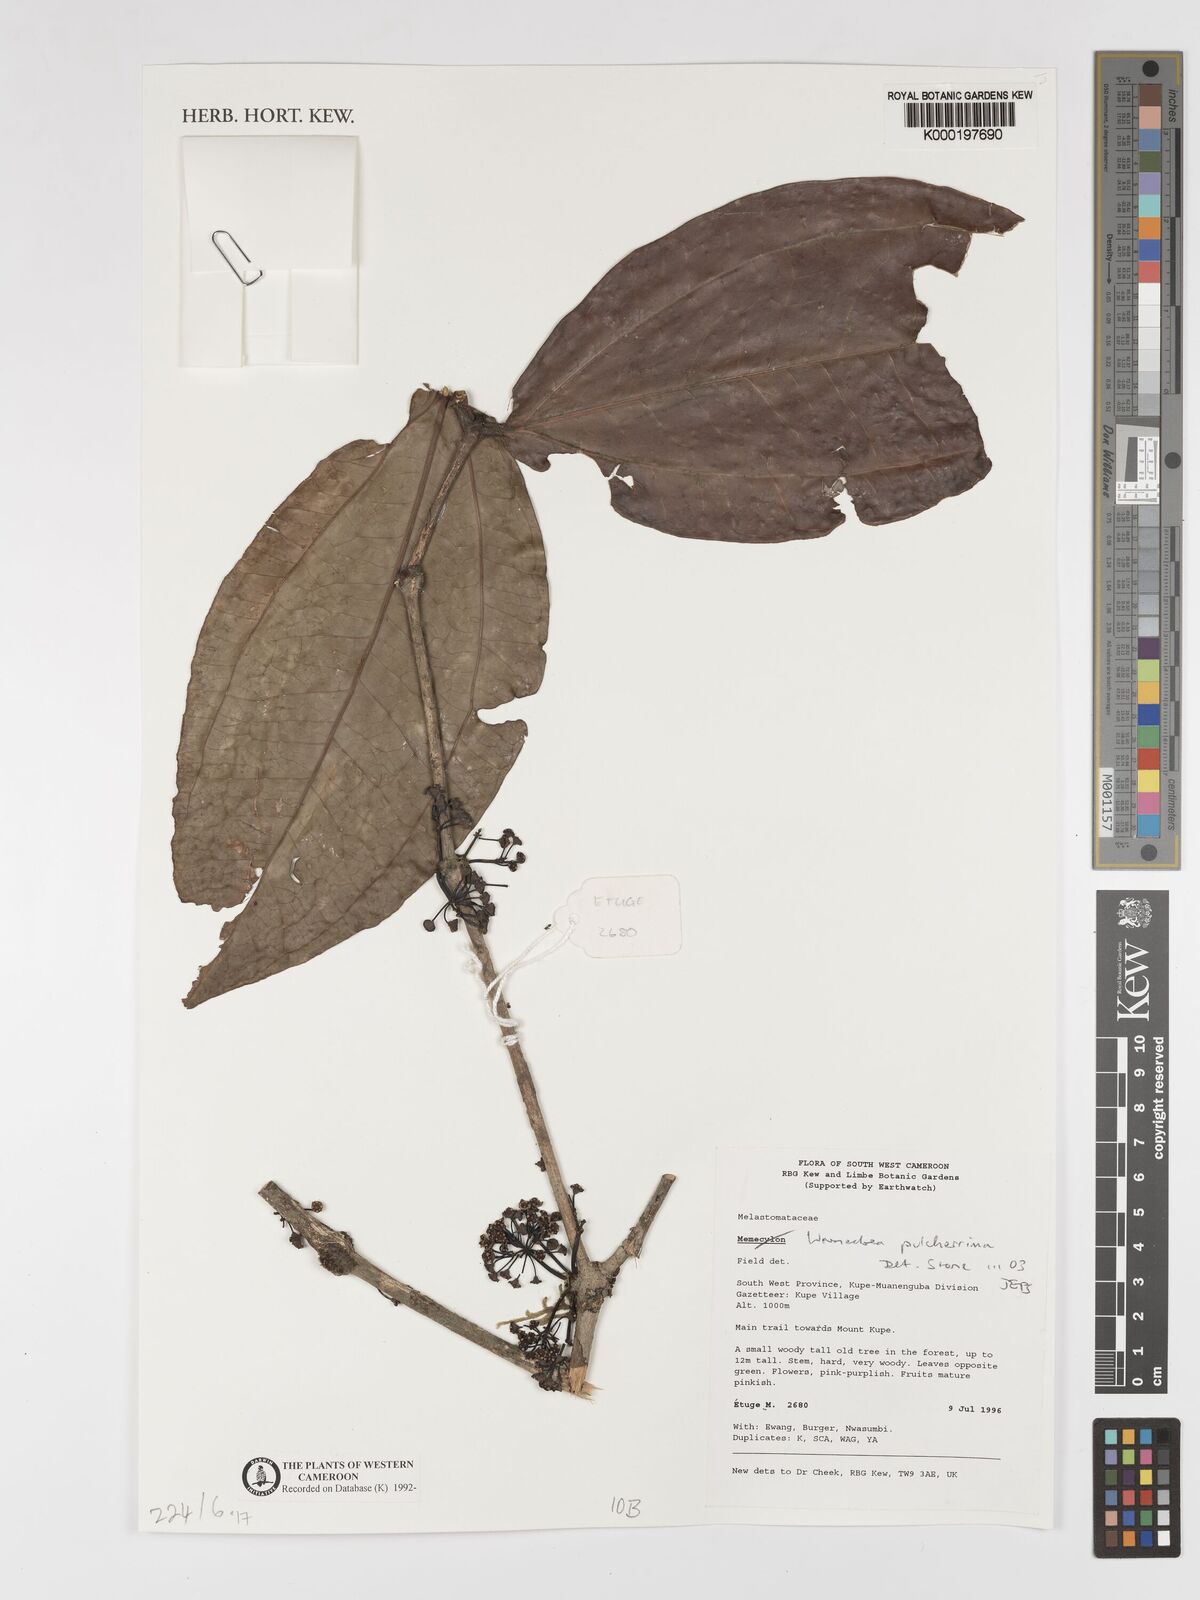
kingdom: Plantae
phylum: Tracheophyta
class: Magnoliopsida
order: Myrtales
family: Melastomataceae
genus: Warneckea
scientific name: Warneckea
